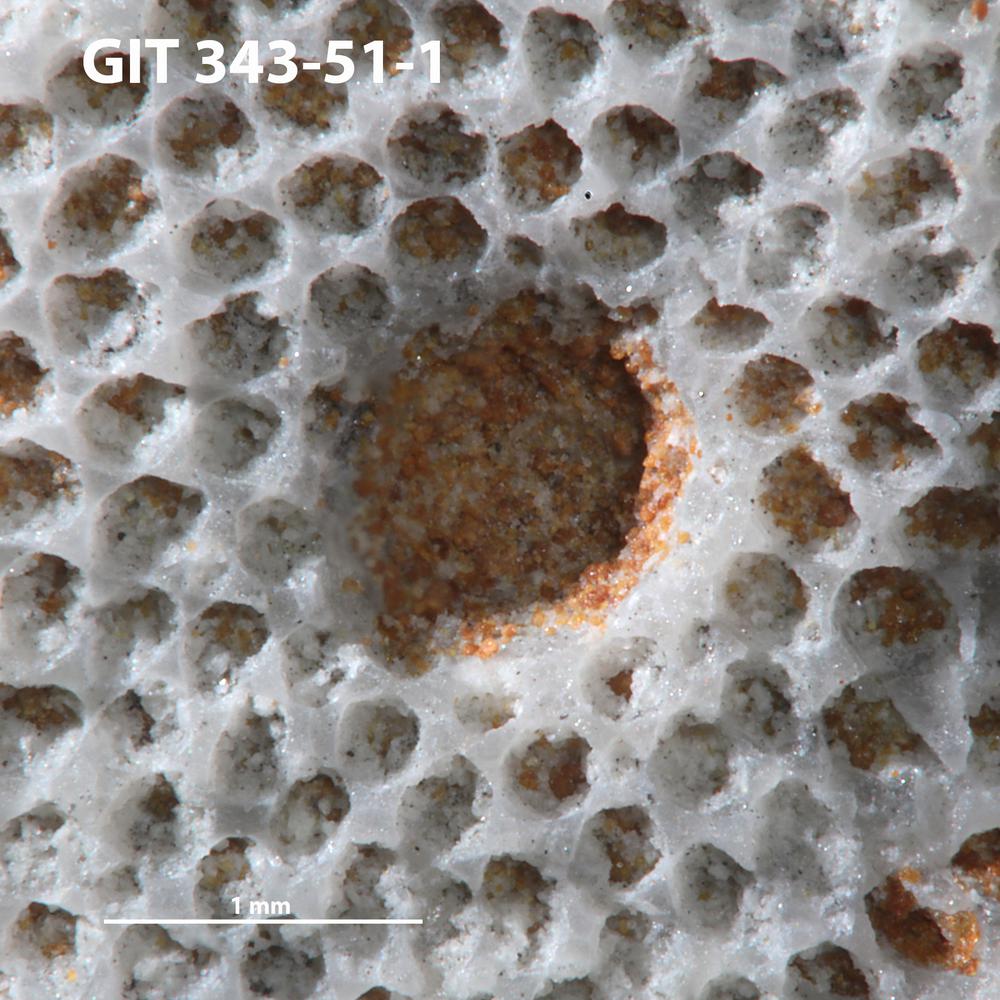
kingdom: Animalia
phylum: Annelida
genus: Anoigmaichnus
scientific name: Anoigmaichnus
